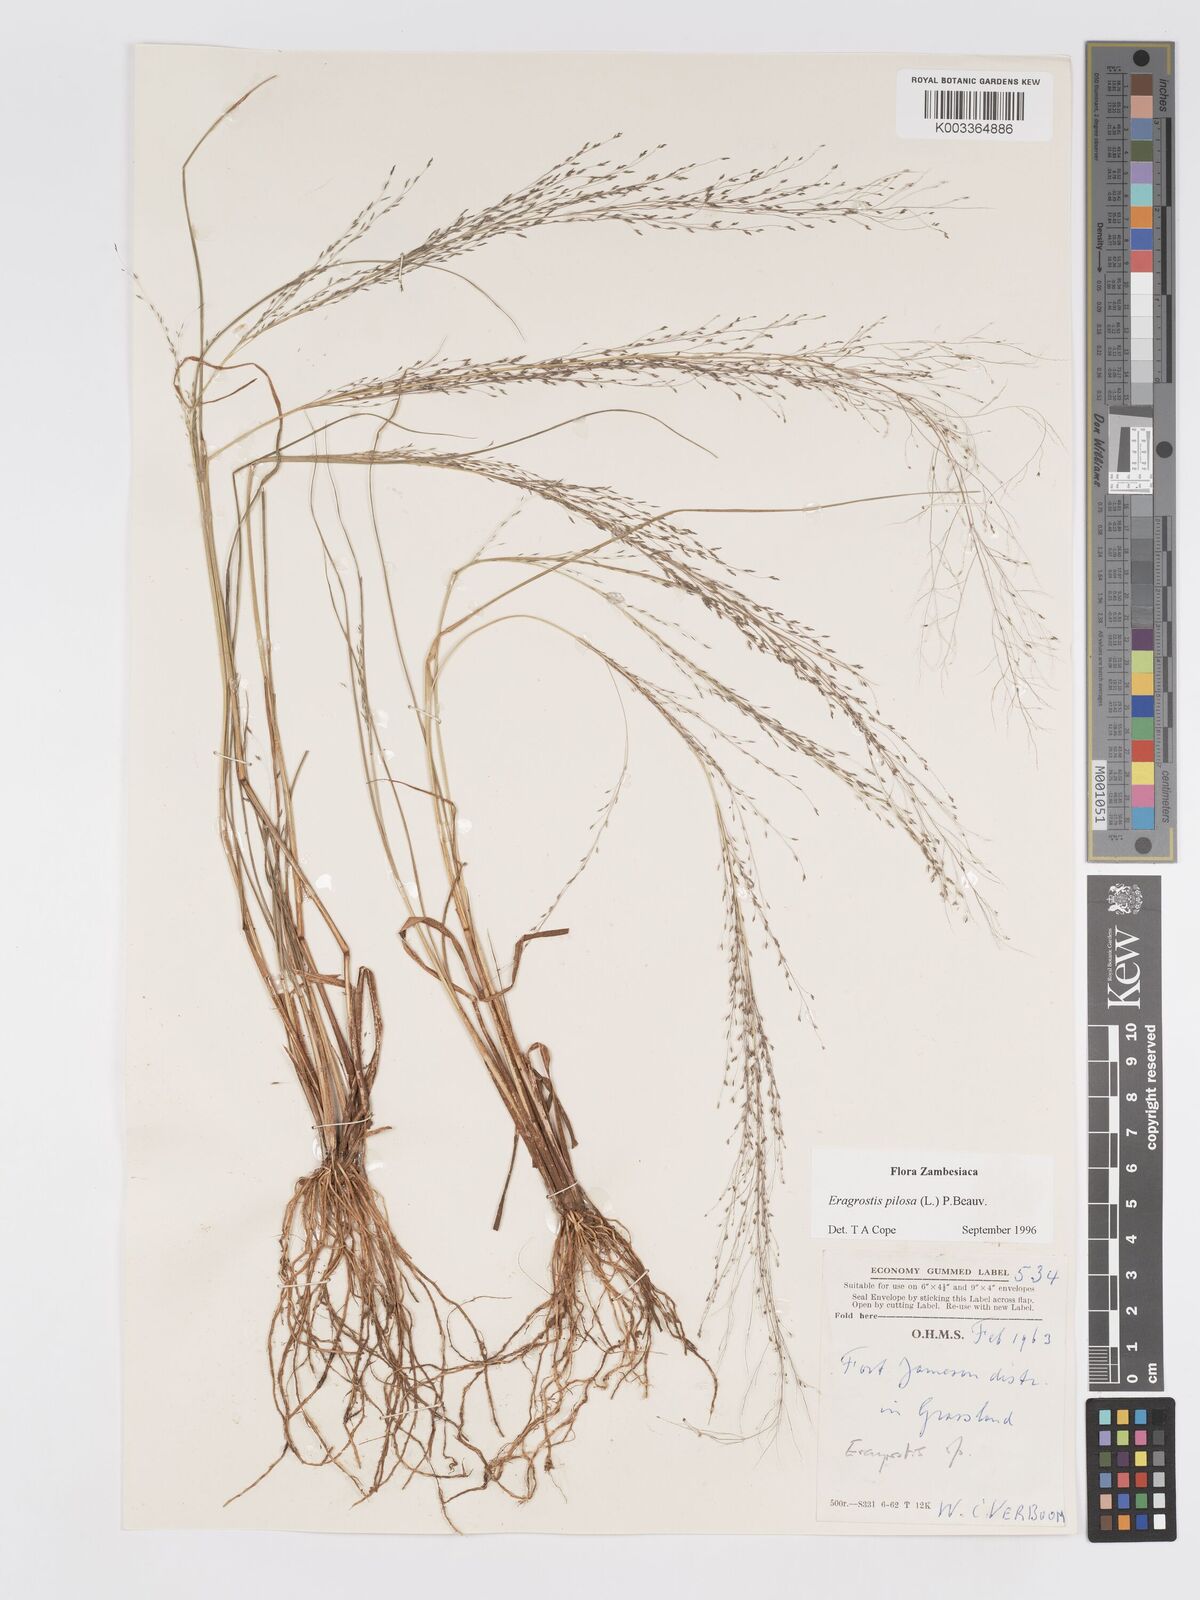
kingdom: Plantae
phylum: Tracheophyta
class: Liliopsida
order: Poales
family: Poaceae
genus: Eragrostis
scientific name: Eragrostis pilosa
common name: Indian lovegrass
